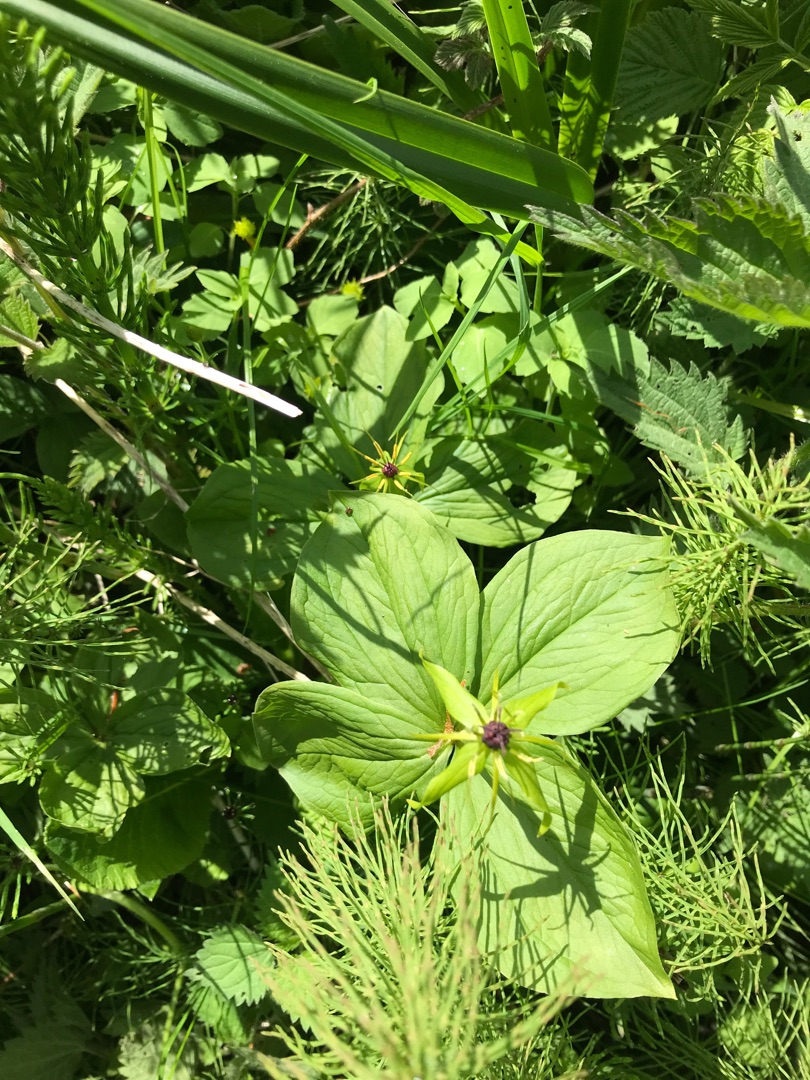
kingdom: Plantae
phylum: Tracheophyta
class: Liliopsida
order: Liliales
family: Melanthiaceae
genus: Paris
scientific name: Paris quadrifolia
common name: Firblad
